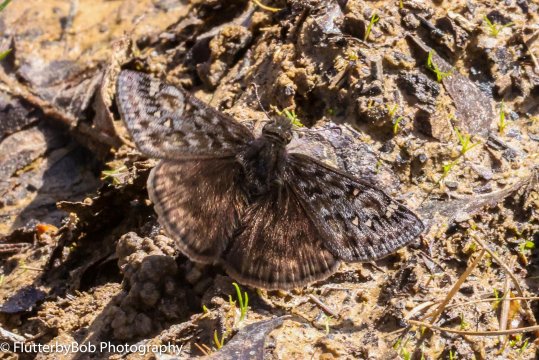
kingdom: Animalia
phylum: Arthropoda
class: Insecta
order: Lepidoptera
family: Hesperiidae
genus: Gesta
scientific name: Gesta
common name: Juvenal's Duskywing
